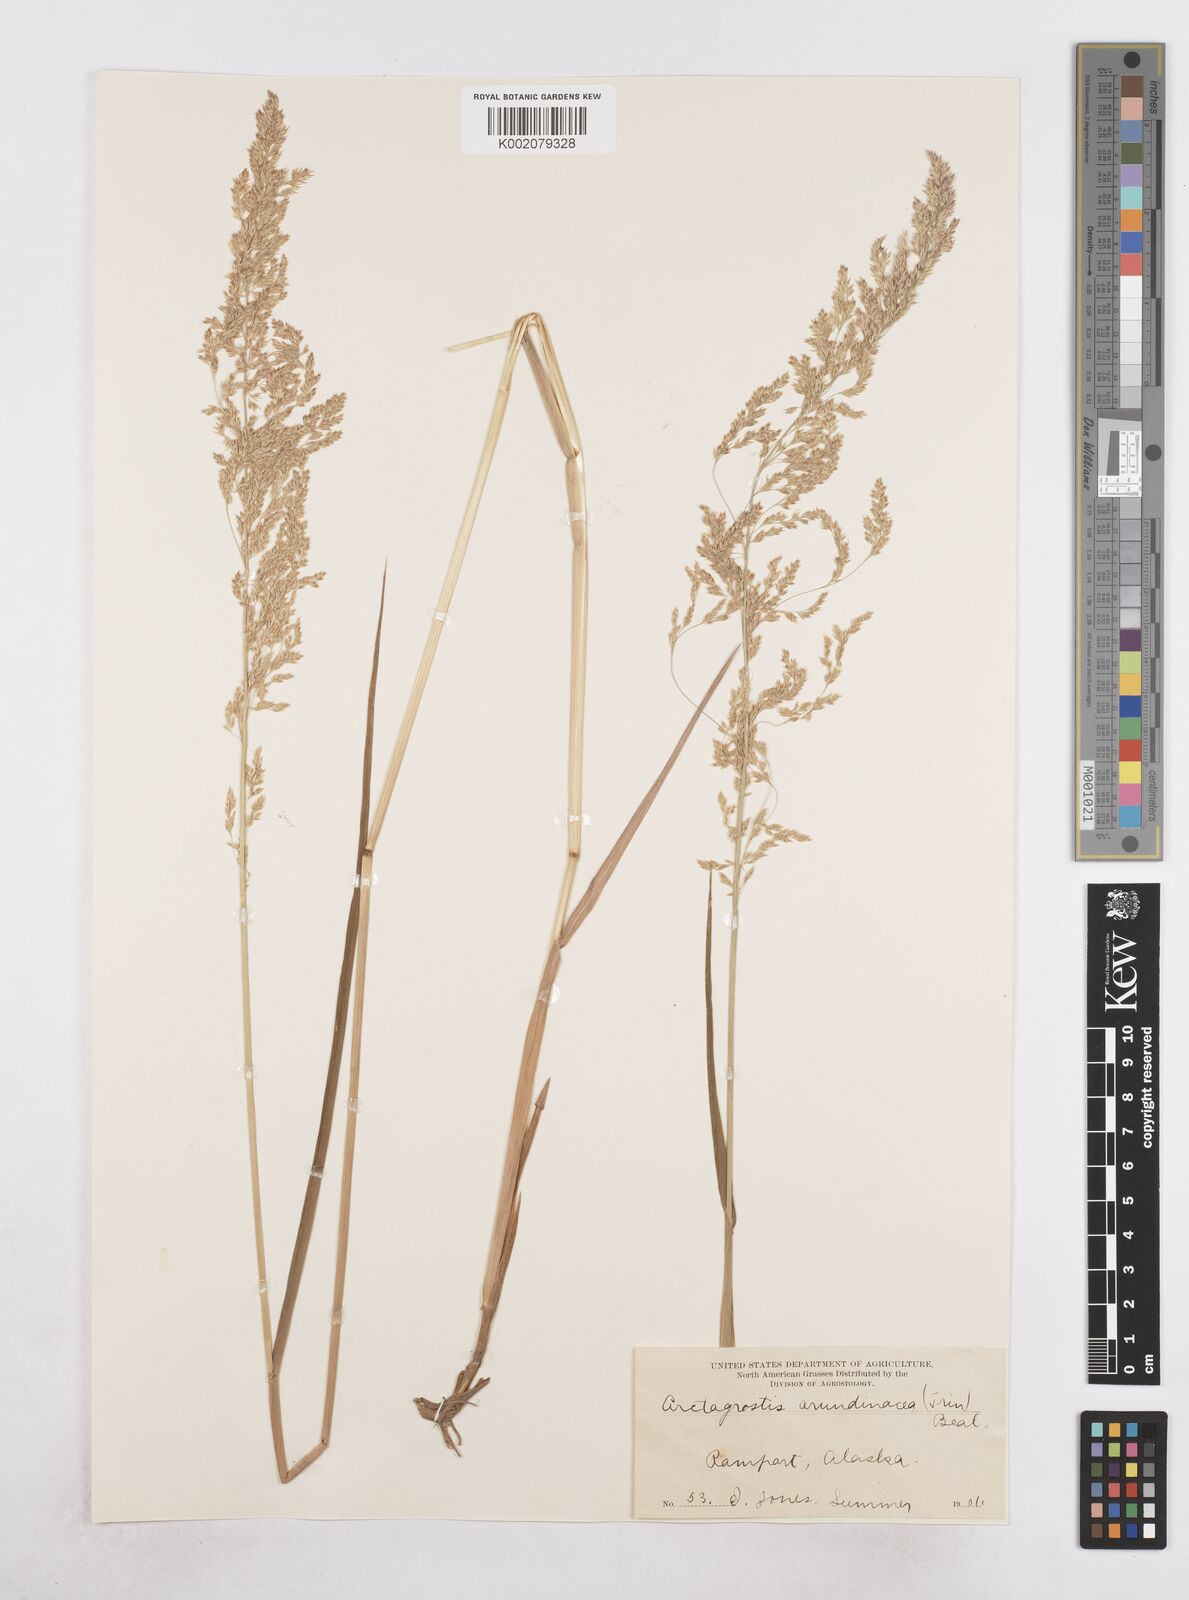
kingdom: Plantae
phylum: Tracheophyta
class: Liliopsida
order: Poales
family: Poaceae
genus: Arctagrostis
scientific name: Arctagrostis arundinacea
